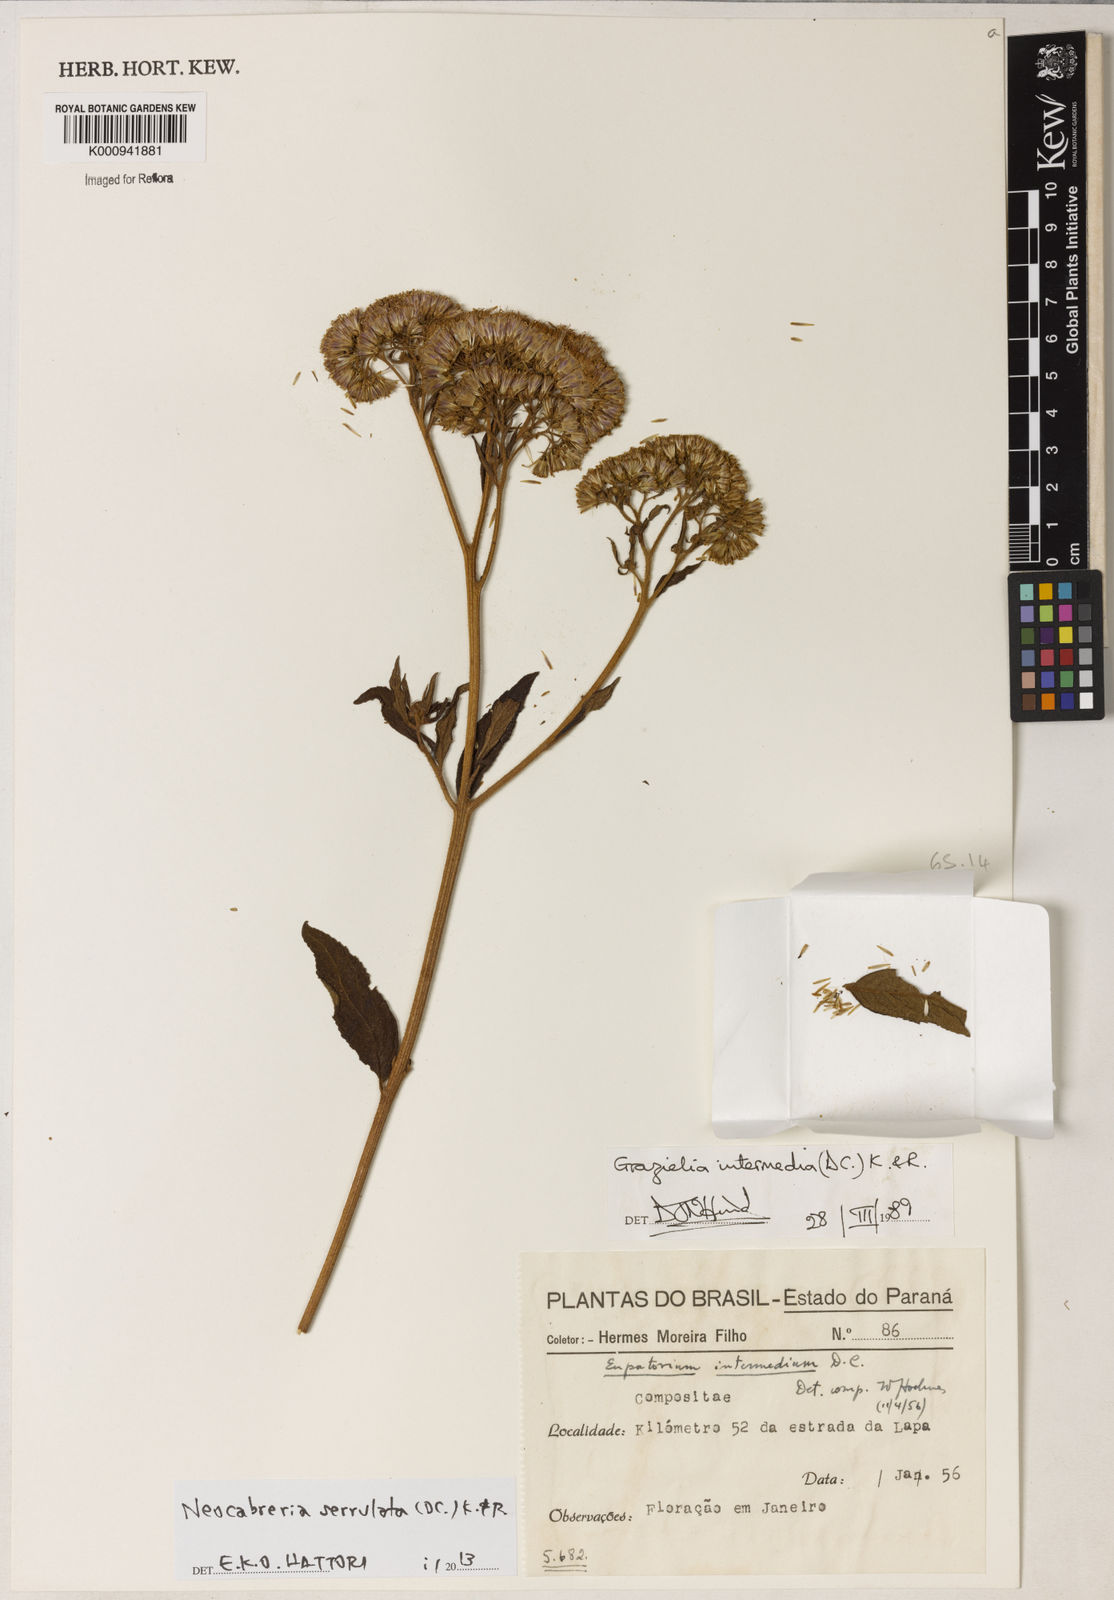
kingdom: Plantae
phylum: Tracheophyta
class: Magnoliopsida
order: Asterales
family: Asteraceae
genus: Neocabreria
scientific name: Neocabreria serrulata
